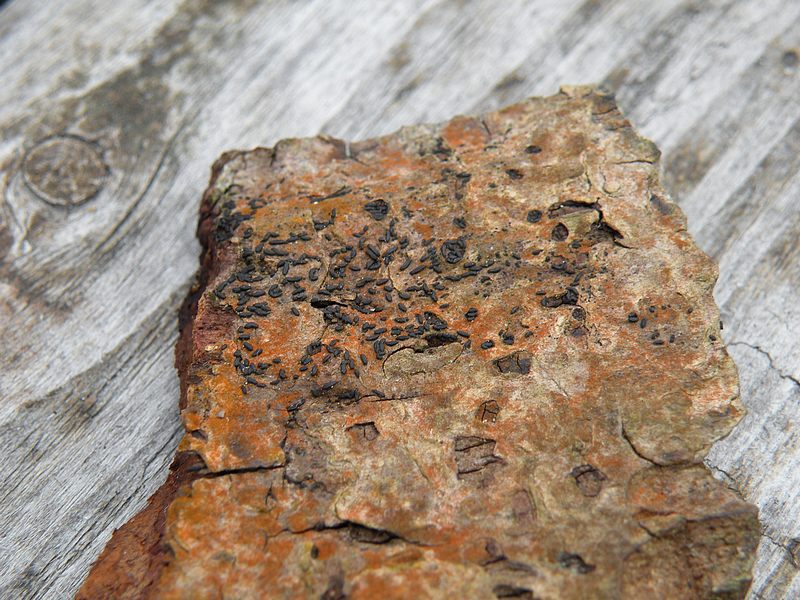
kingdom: Fungi
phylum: Ascomycota
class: Dothideomycetes
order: Hysteriales
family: Hysteriaceae
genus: Hysterium
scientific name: Hysterium acuminatum
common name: almindelig kulmund
